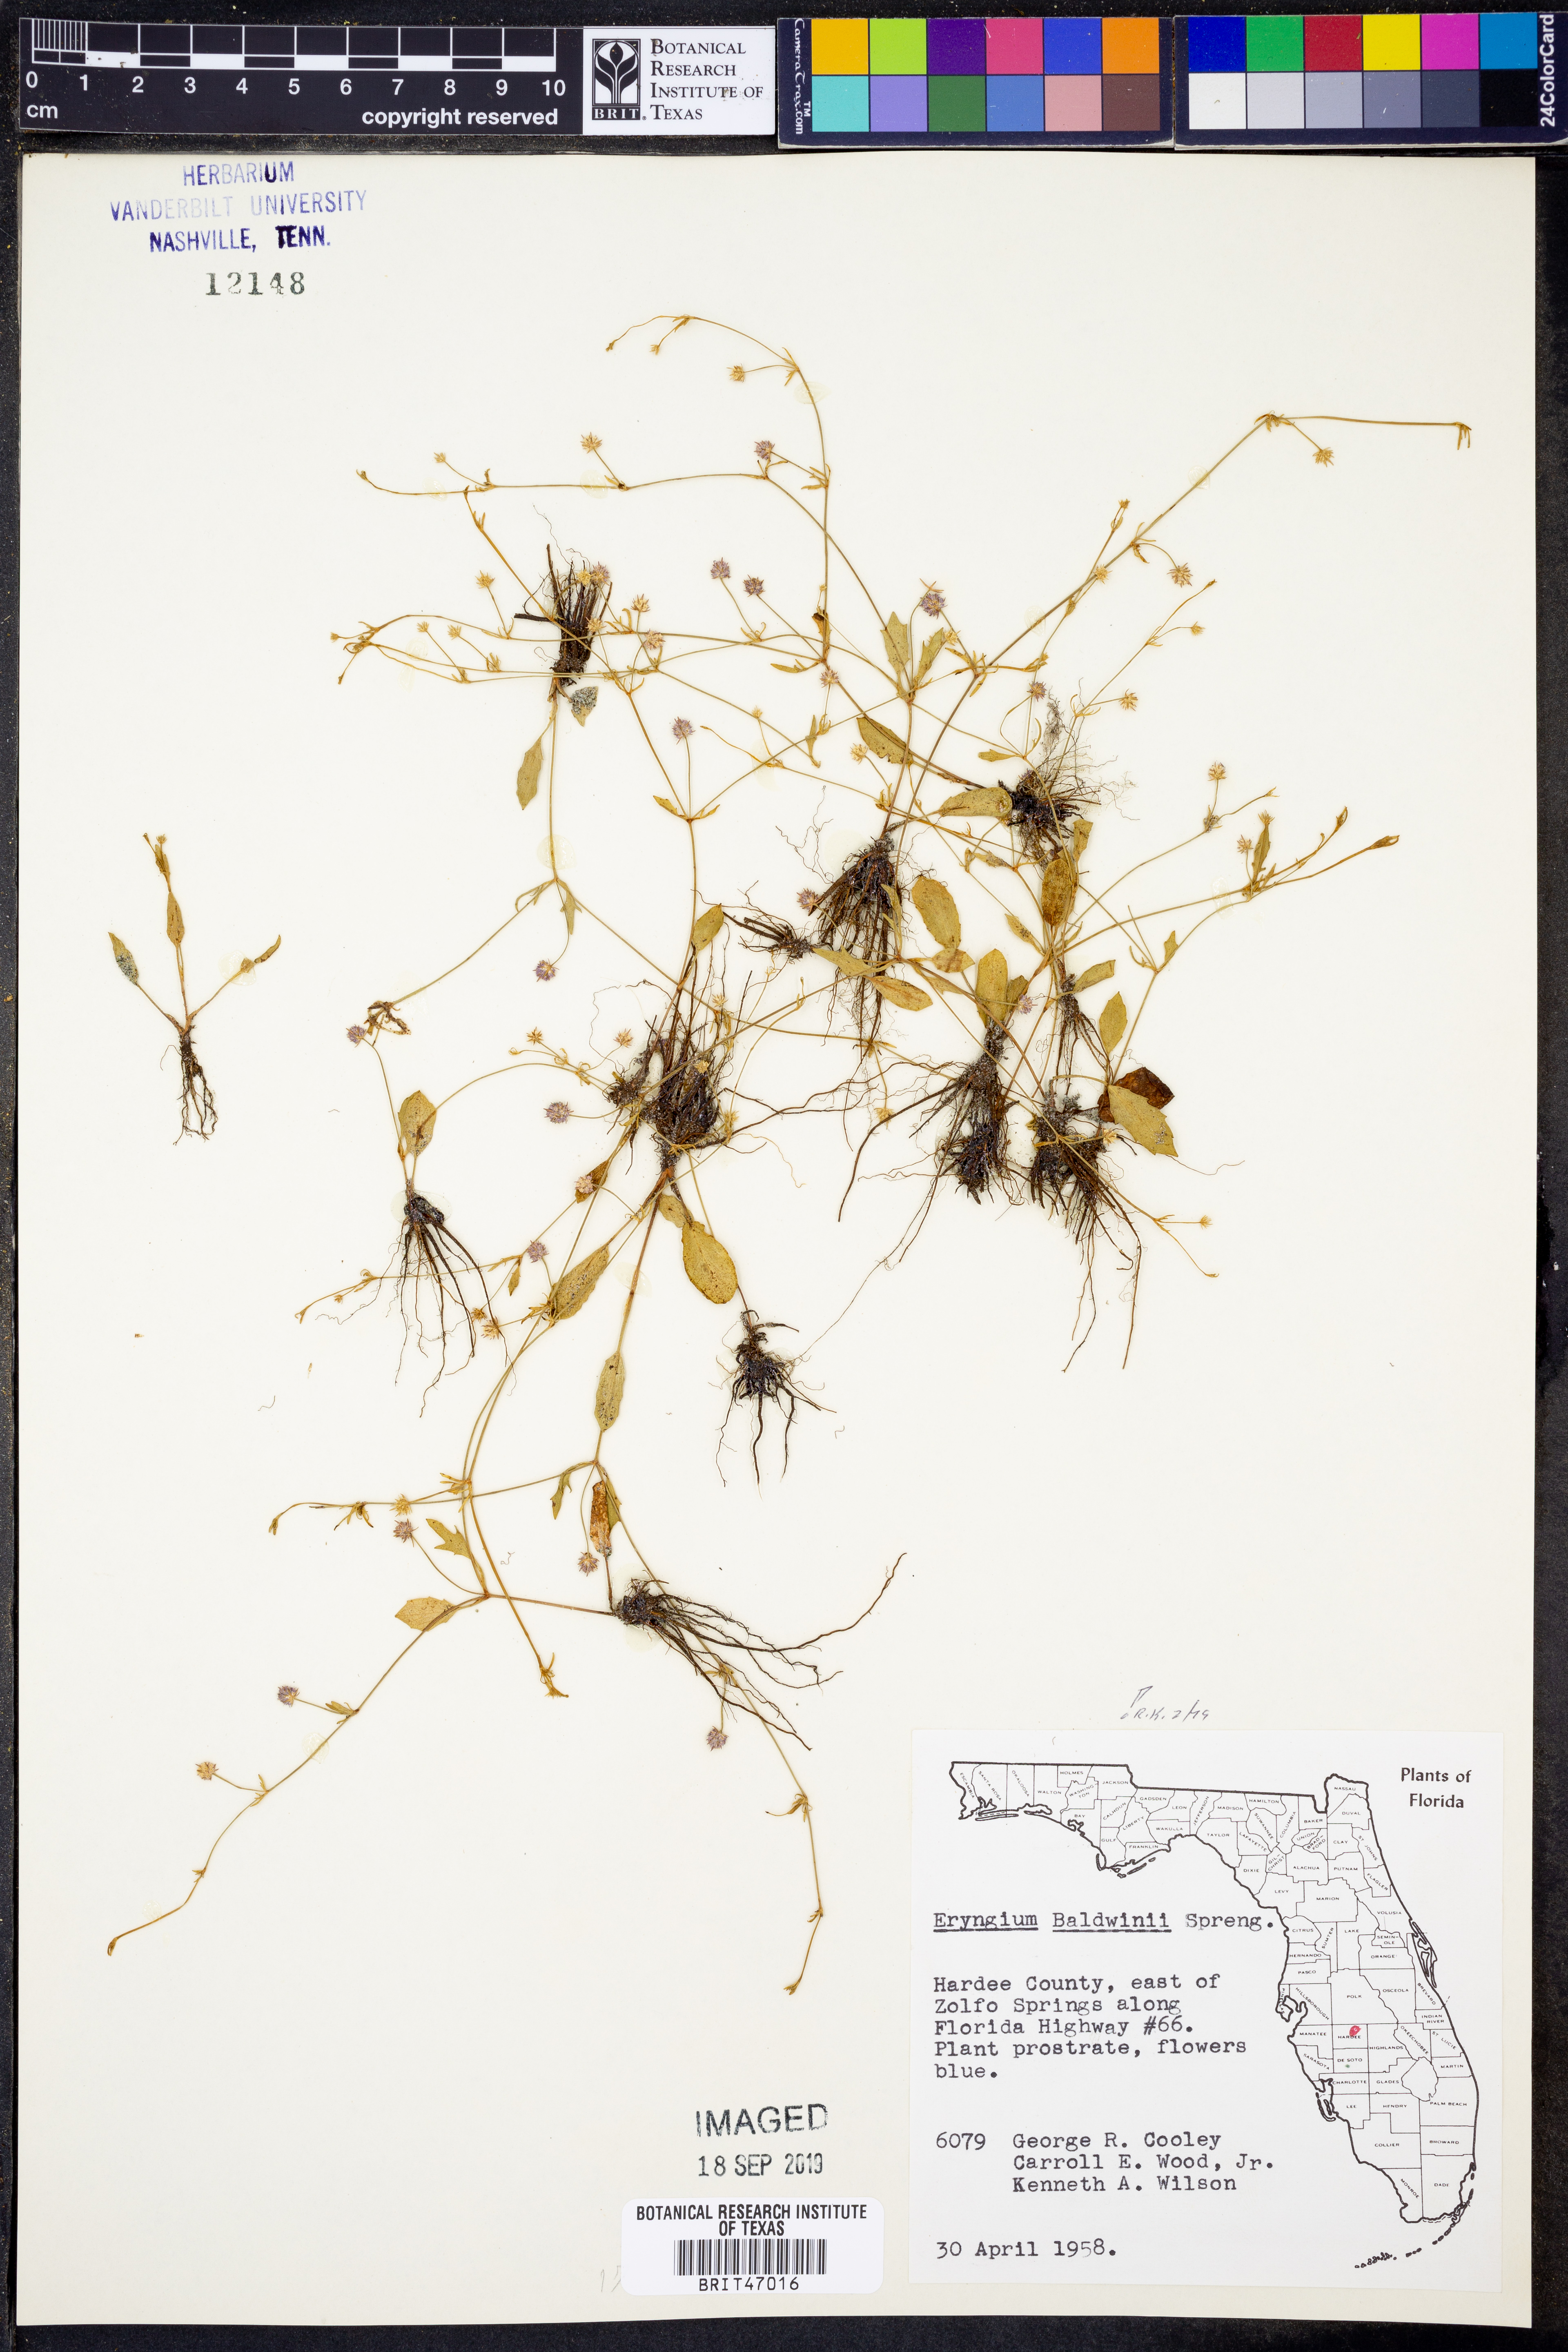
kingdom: Plantae
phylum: Tracheophyta
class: Magnoliopsida
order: Apiales
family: Apiaceae
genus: Eryngium
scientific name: Eryngium baldwinii
